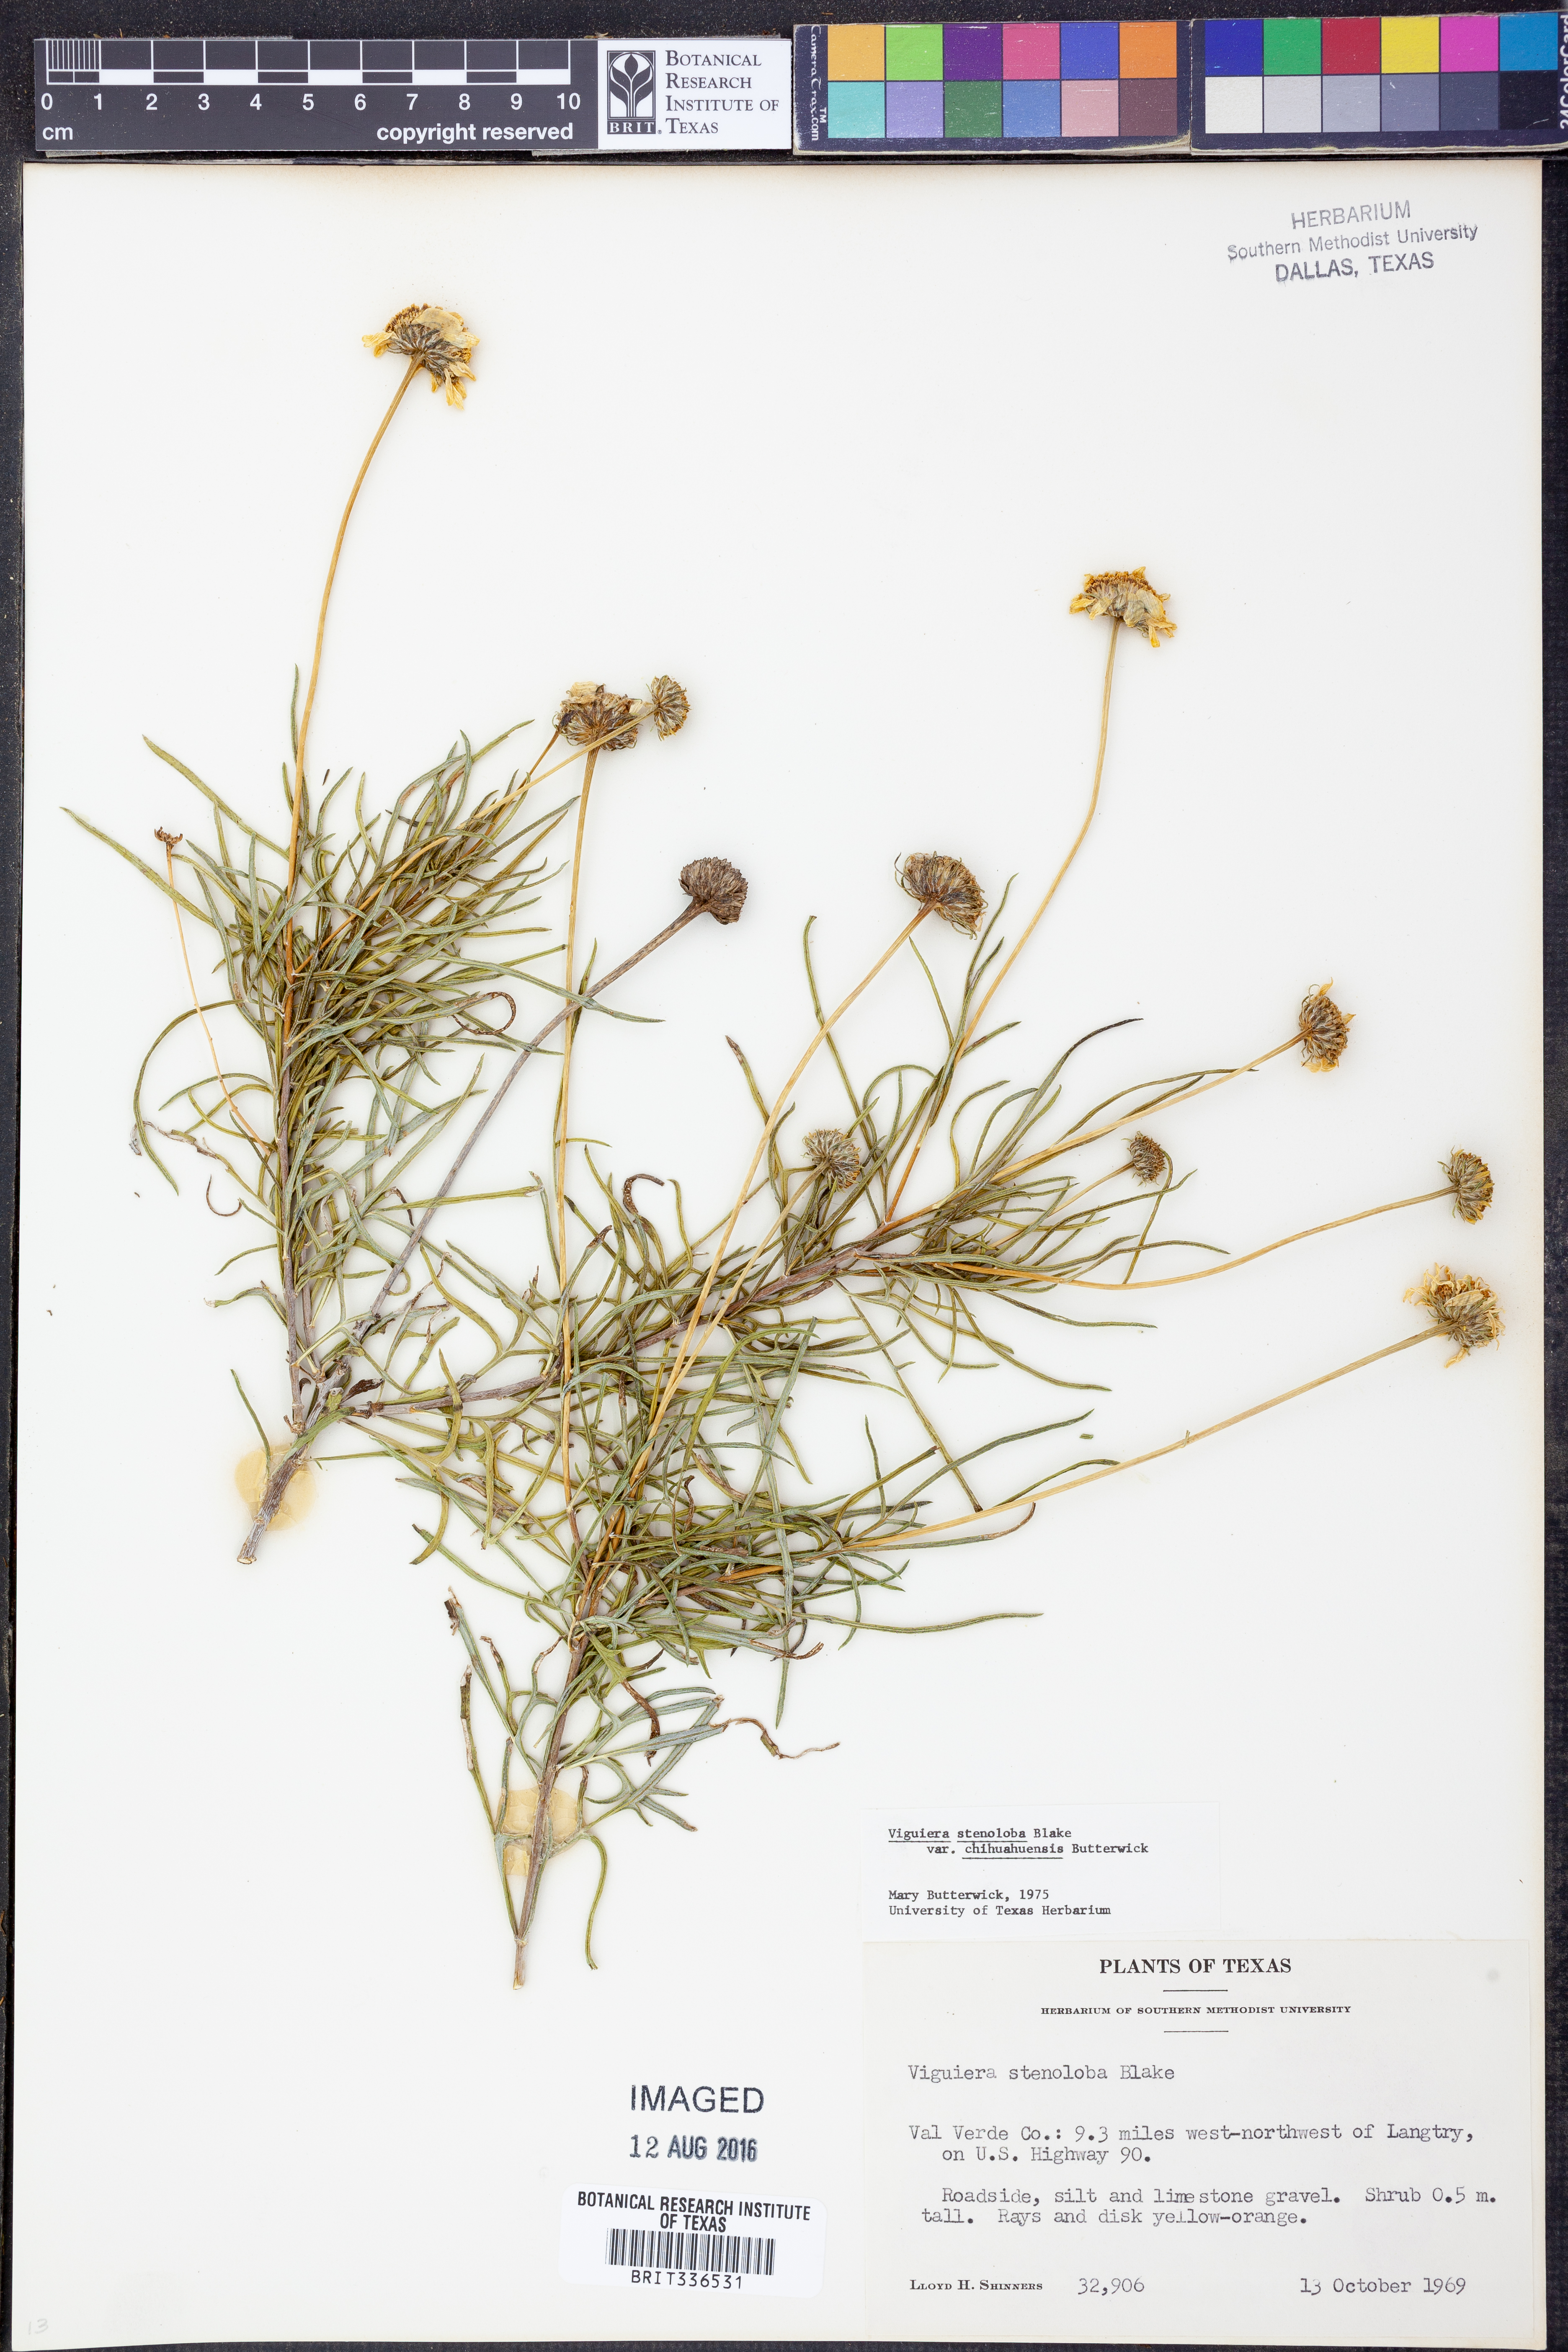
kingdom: Plantae
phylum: Tracheophyta
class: Magnoliopsida
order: Asterales
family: Asteraceae
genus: Sidneya
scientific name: Sidneya tenuifolia
